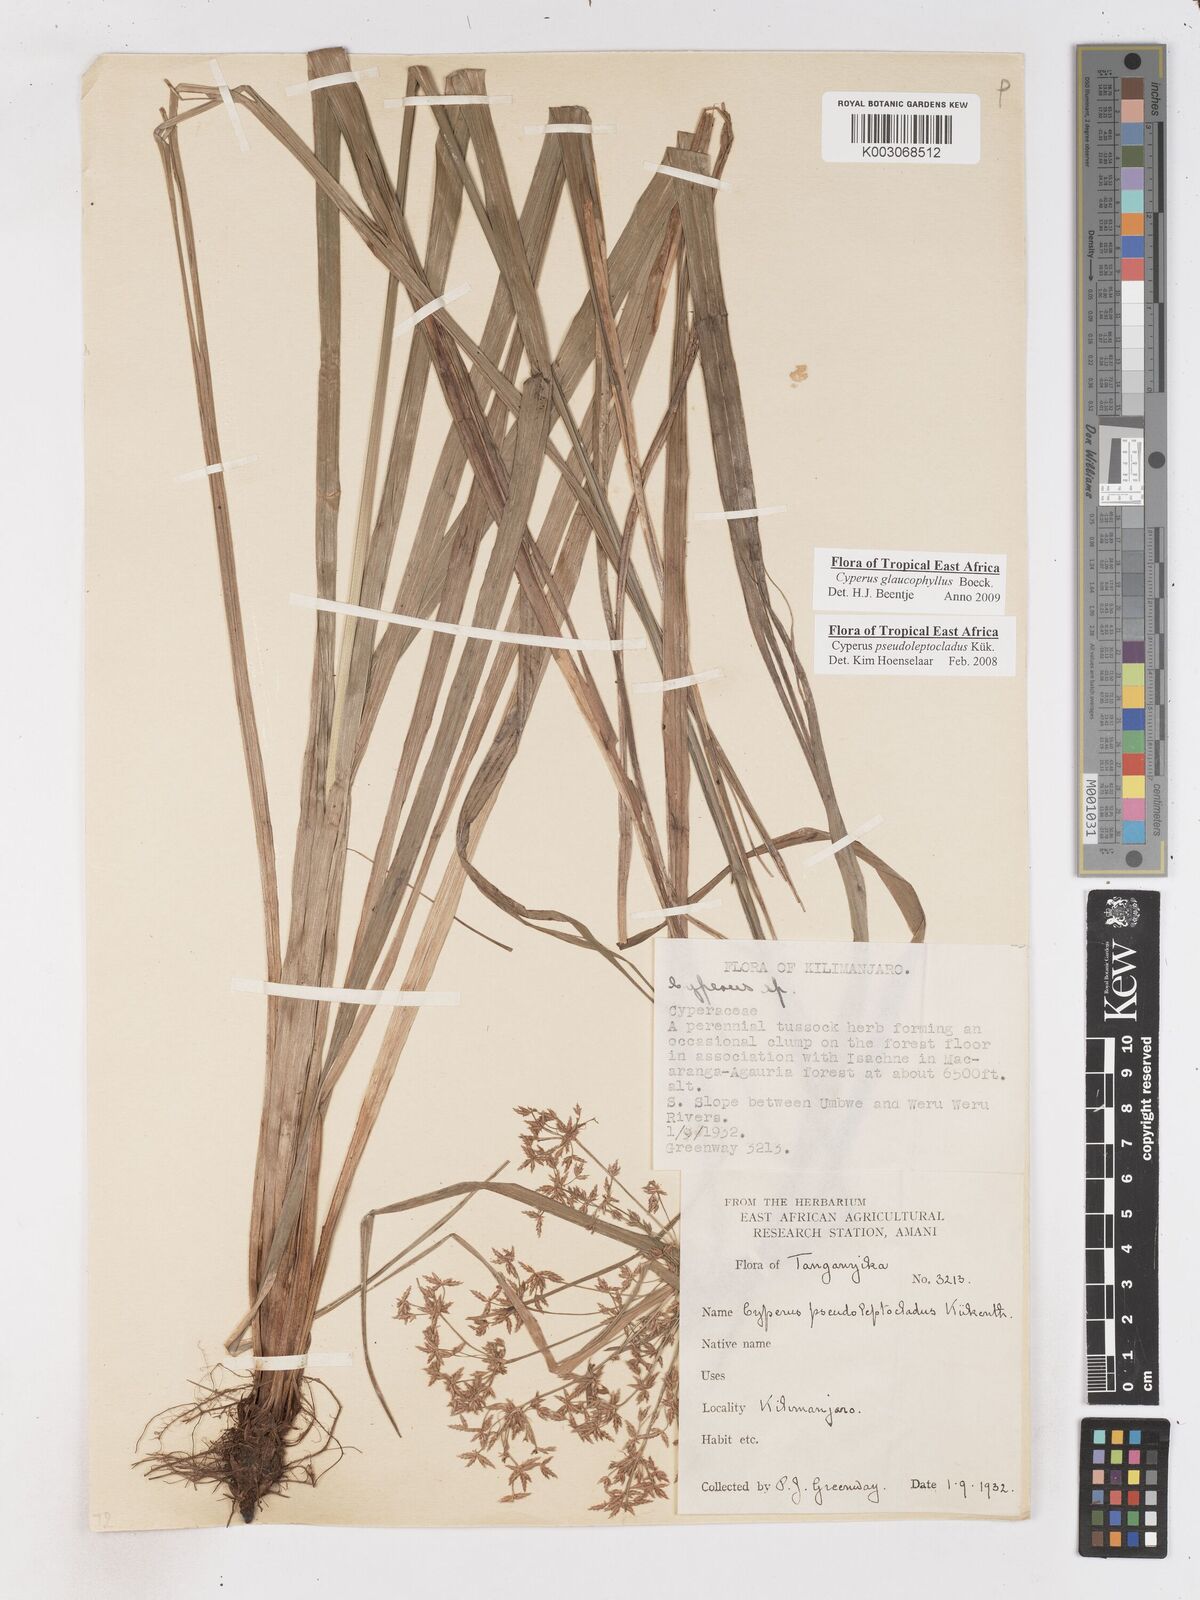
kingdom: Plantae
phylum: Tracheophyta
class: Liliopsida
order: Poales
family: Cyperaceae
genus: Cyperus
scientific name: Cyperus glaucophyllus
